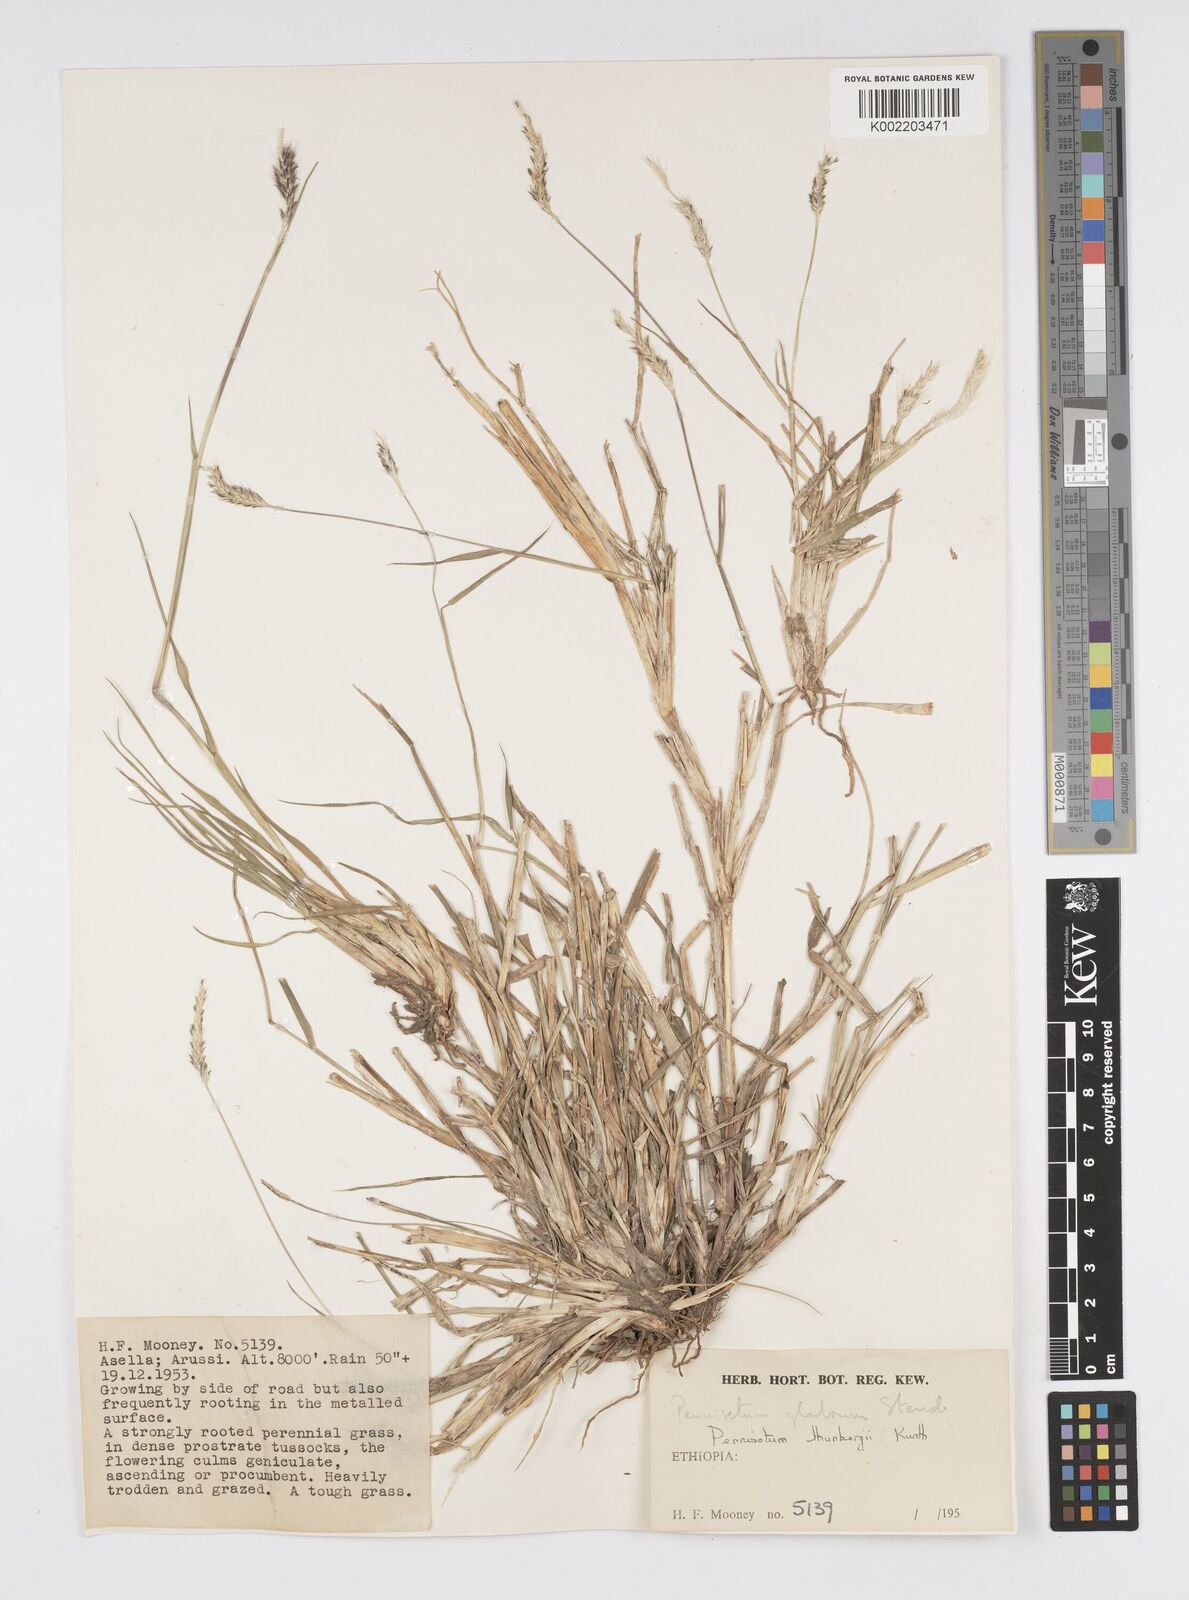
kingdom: Plantae
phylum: Tracheophyta
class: Liliopsida
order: Poales
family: Poaceae
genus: Cenchrus
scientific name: Cenchrus geniculatus
